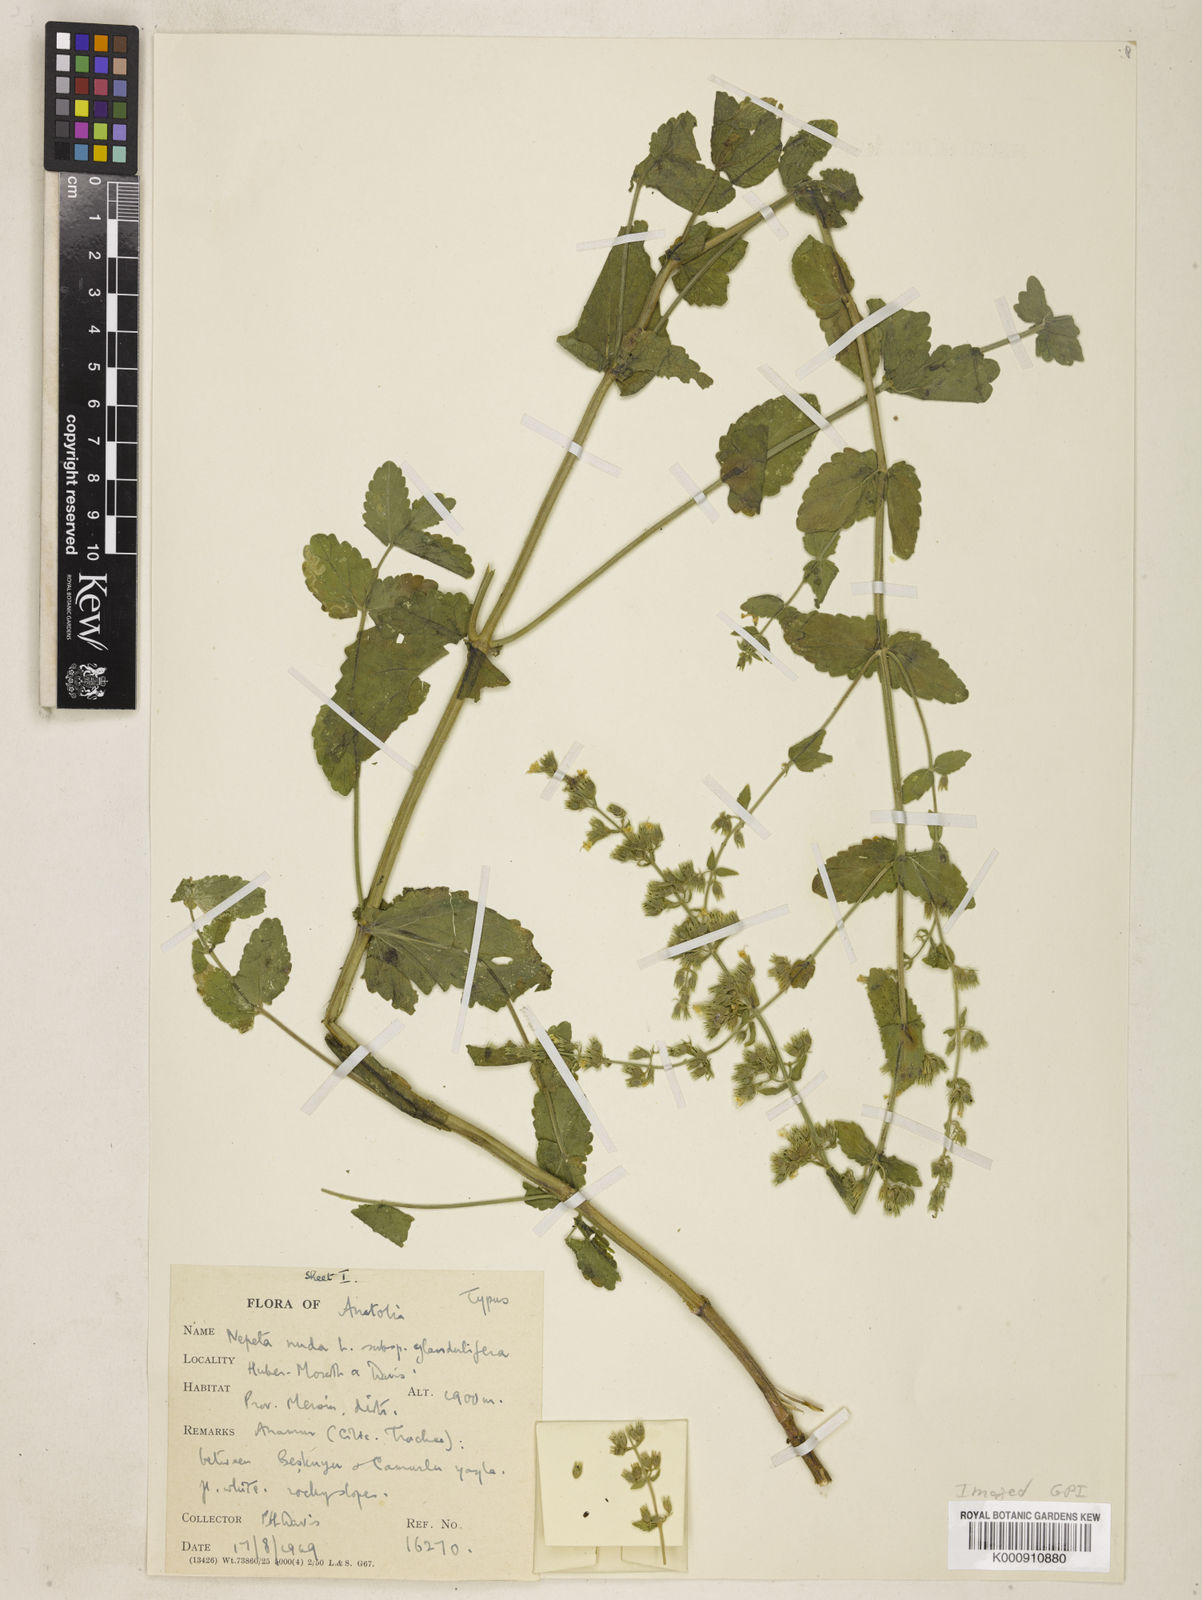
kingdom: Plantae
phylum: Tracheophyta
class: Magnoliopsida
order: Lamiales
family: Lamiaceae
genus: Nepeta
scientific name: Nepeta nuda
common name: Hairless catmint
